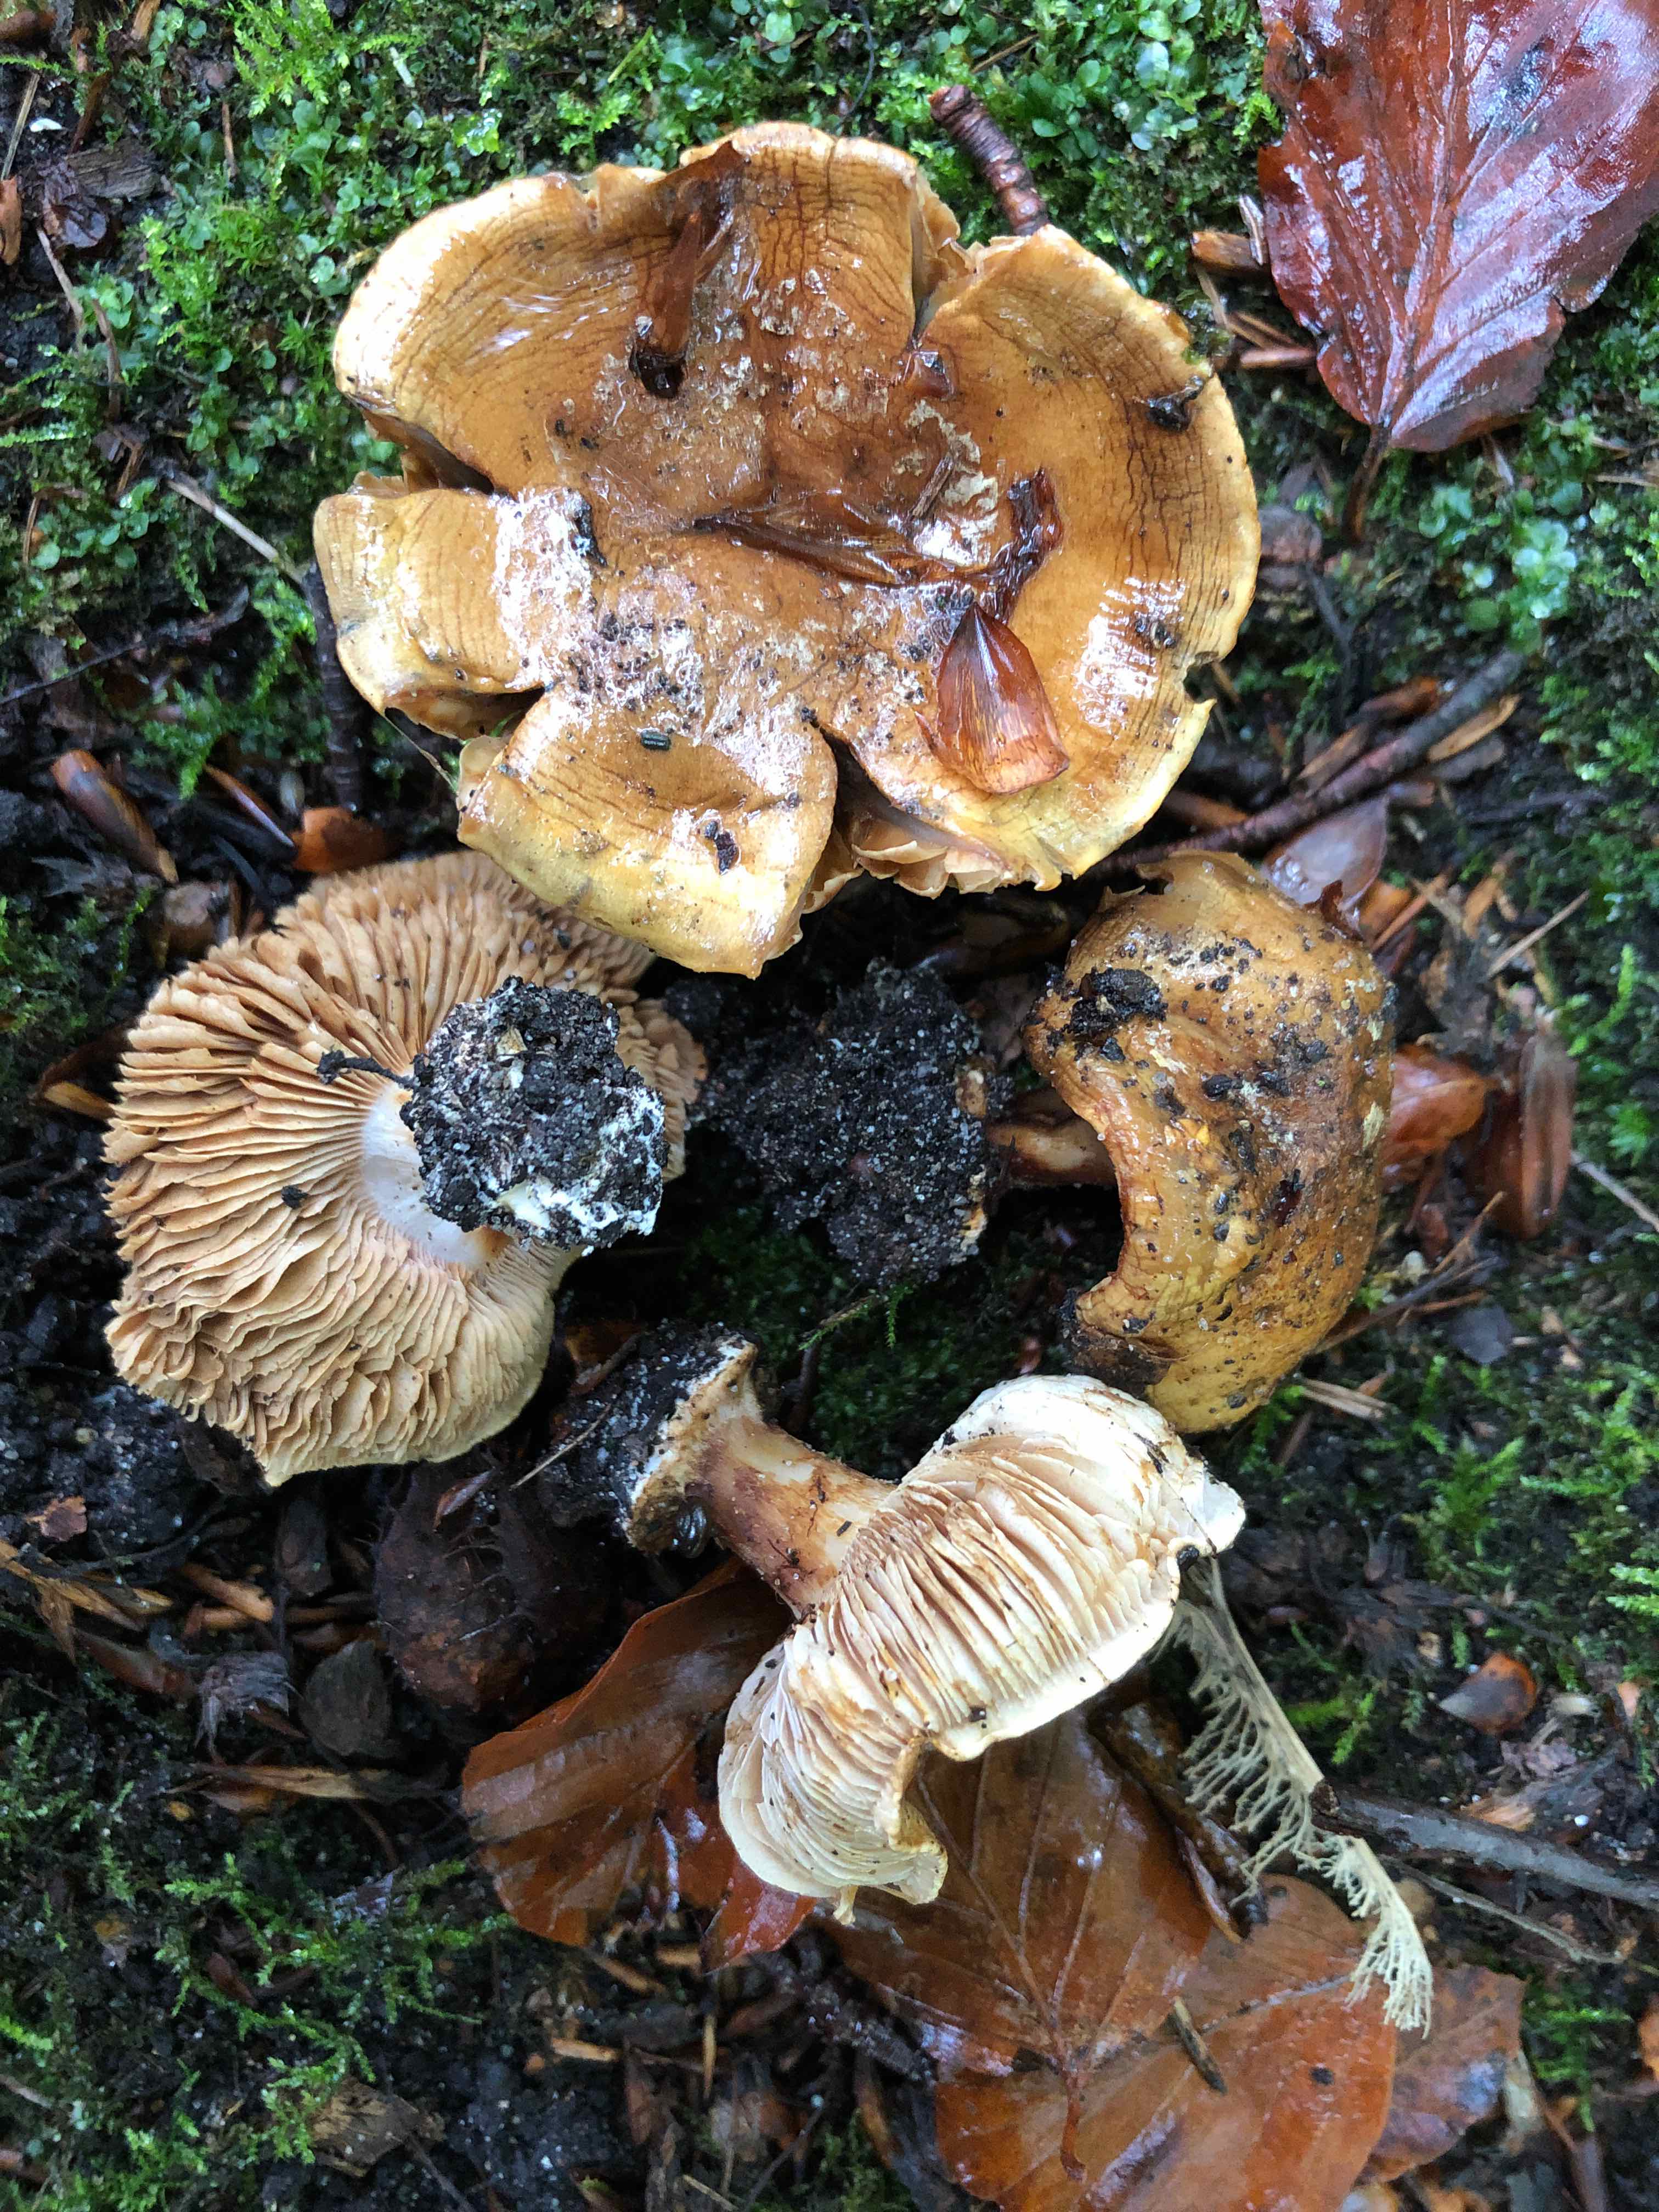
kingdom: Fungi
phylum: Basidiomycota
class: Agaricomycetes
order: Agaricales
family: Cortinariaceae
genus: Cortinarius
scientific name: Cortinarius
